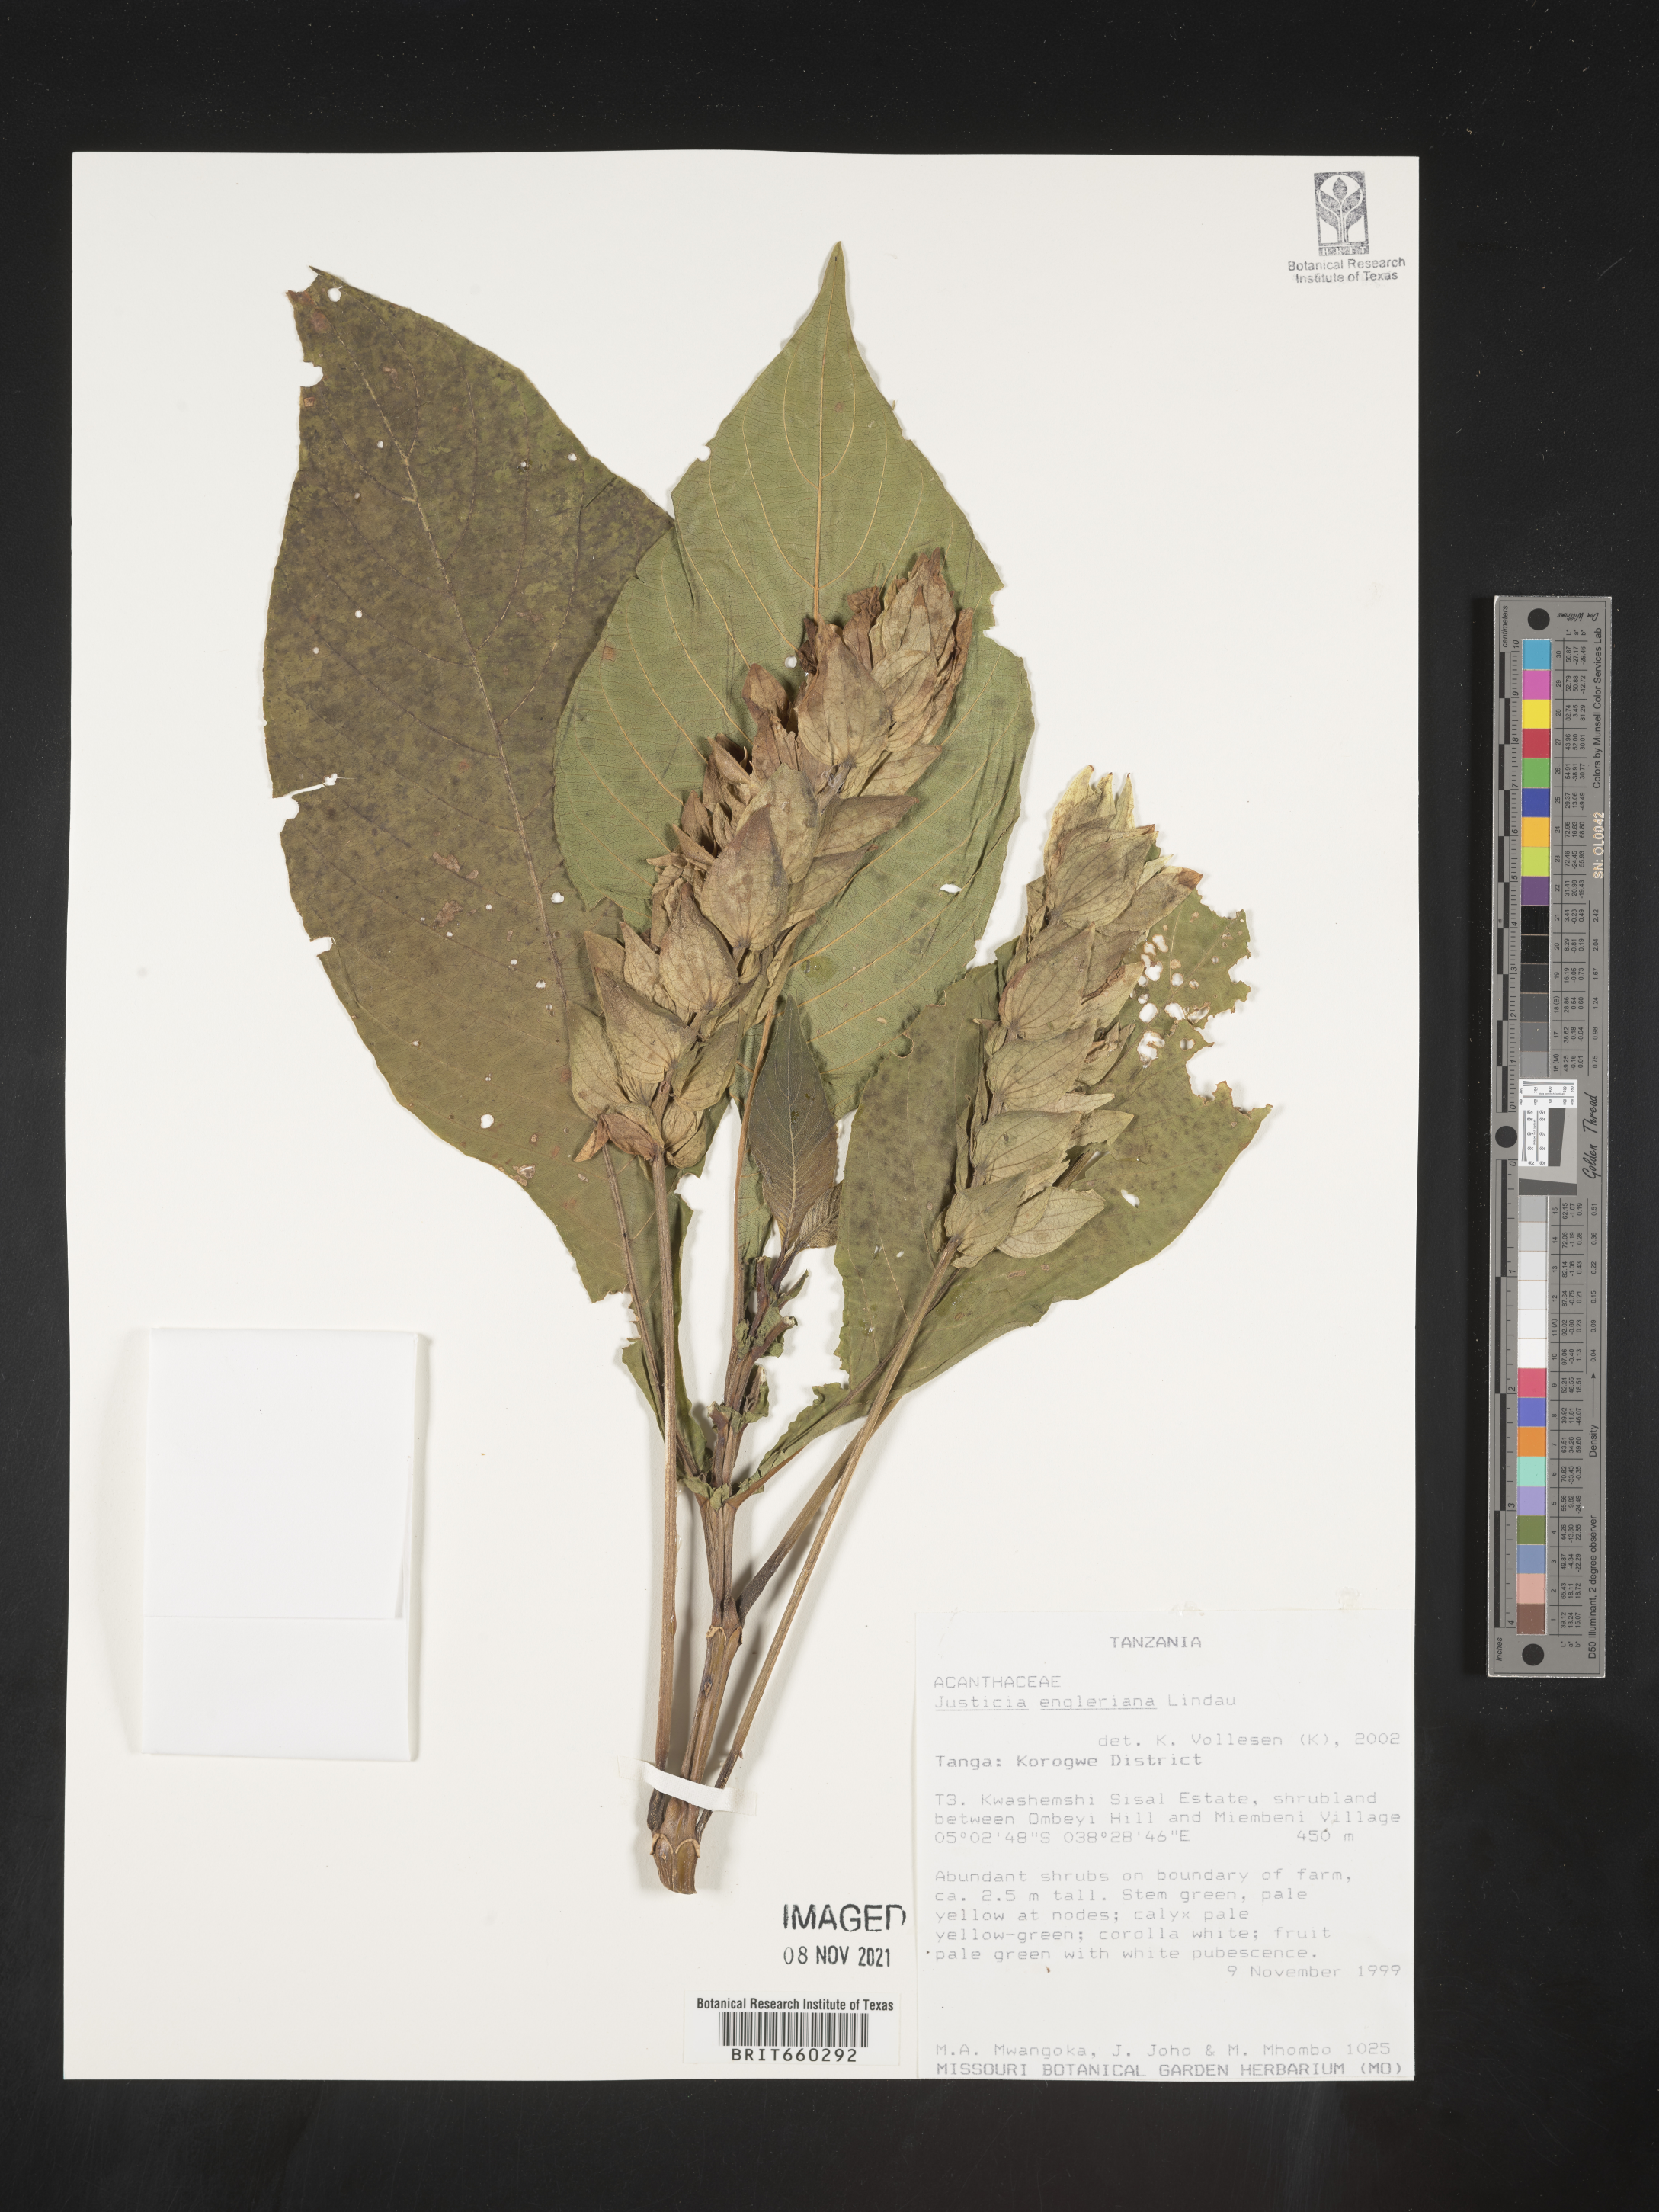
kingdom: Plantae
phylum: Tracheophyta
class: Magnoliopsida
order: Lamiales
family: Acanthaceae
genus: Justicia
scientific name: Justicia
